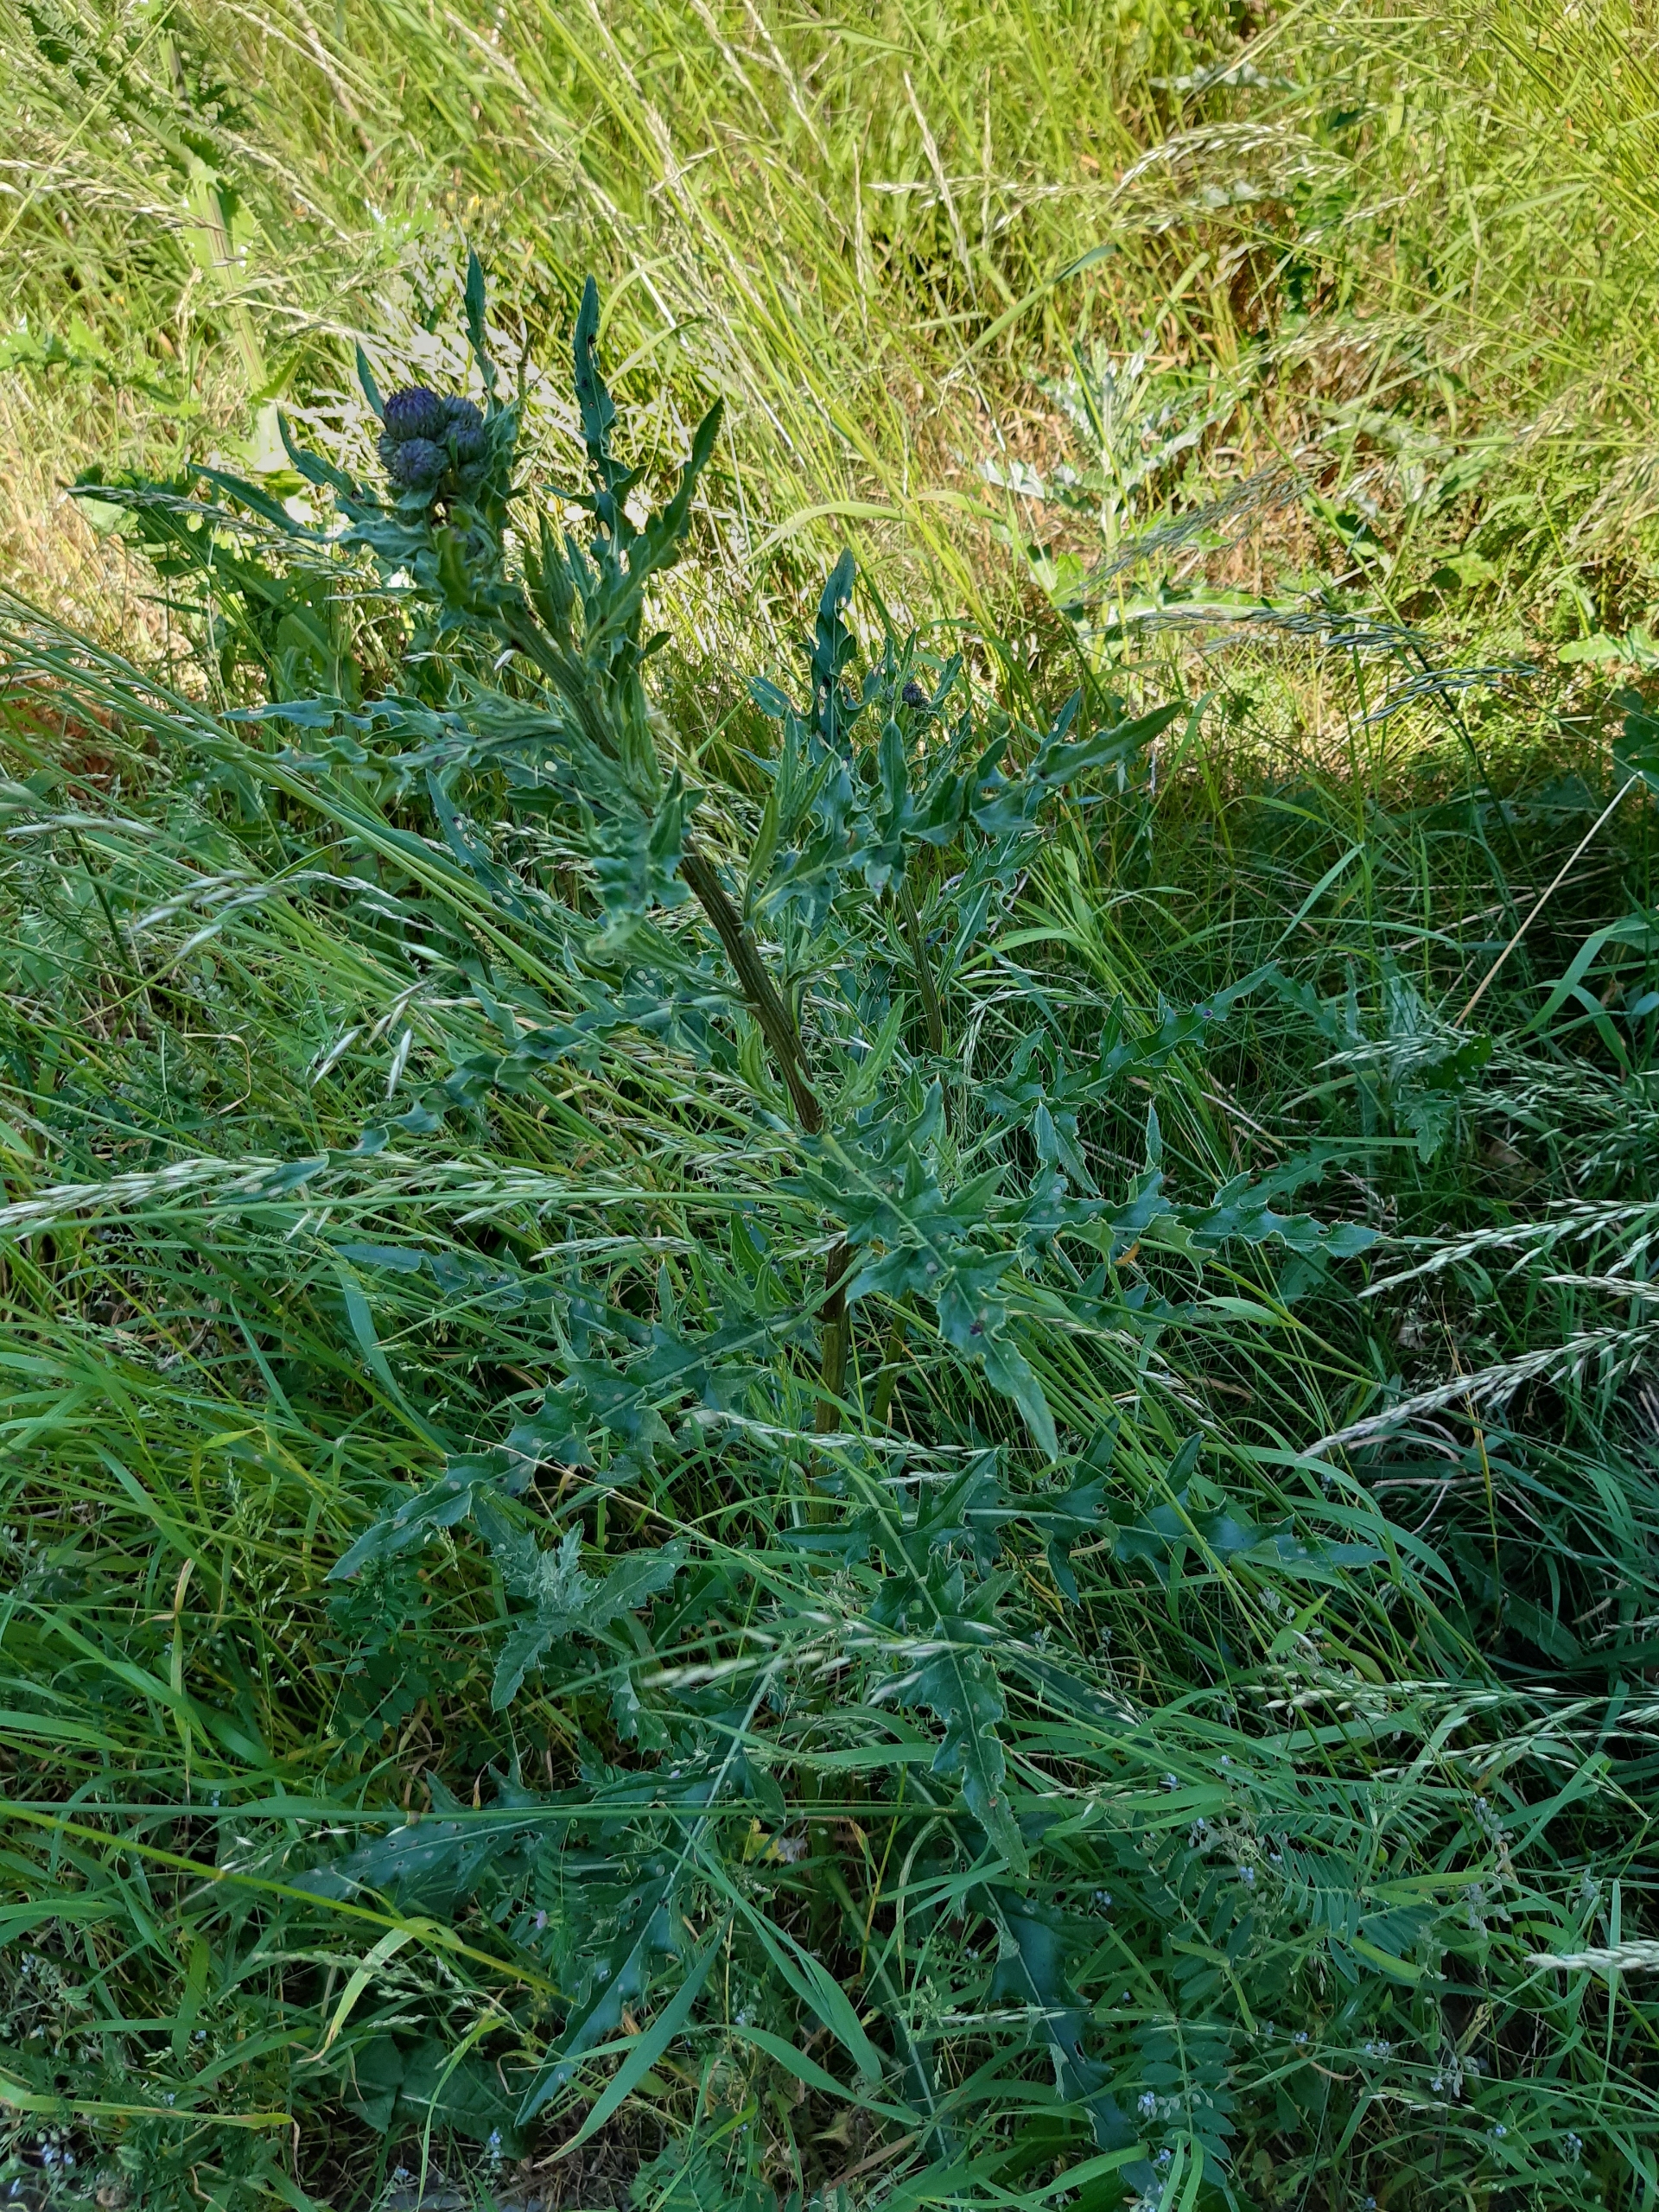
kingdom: Plantae
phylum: Tracheophyta
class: Magnoliopsida
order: Asterales
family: Asteraceae
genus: Cirsium
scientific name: Cirsium arvense
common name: Ager-tidsel
